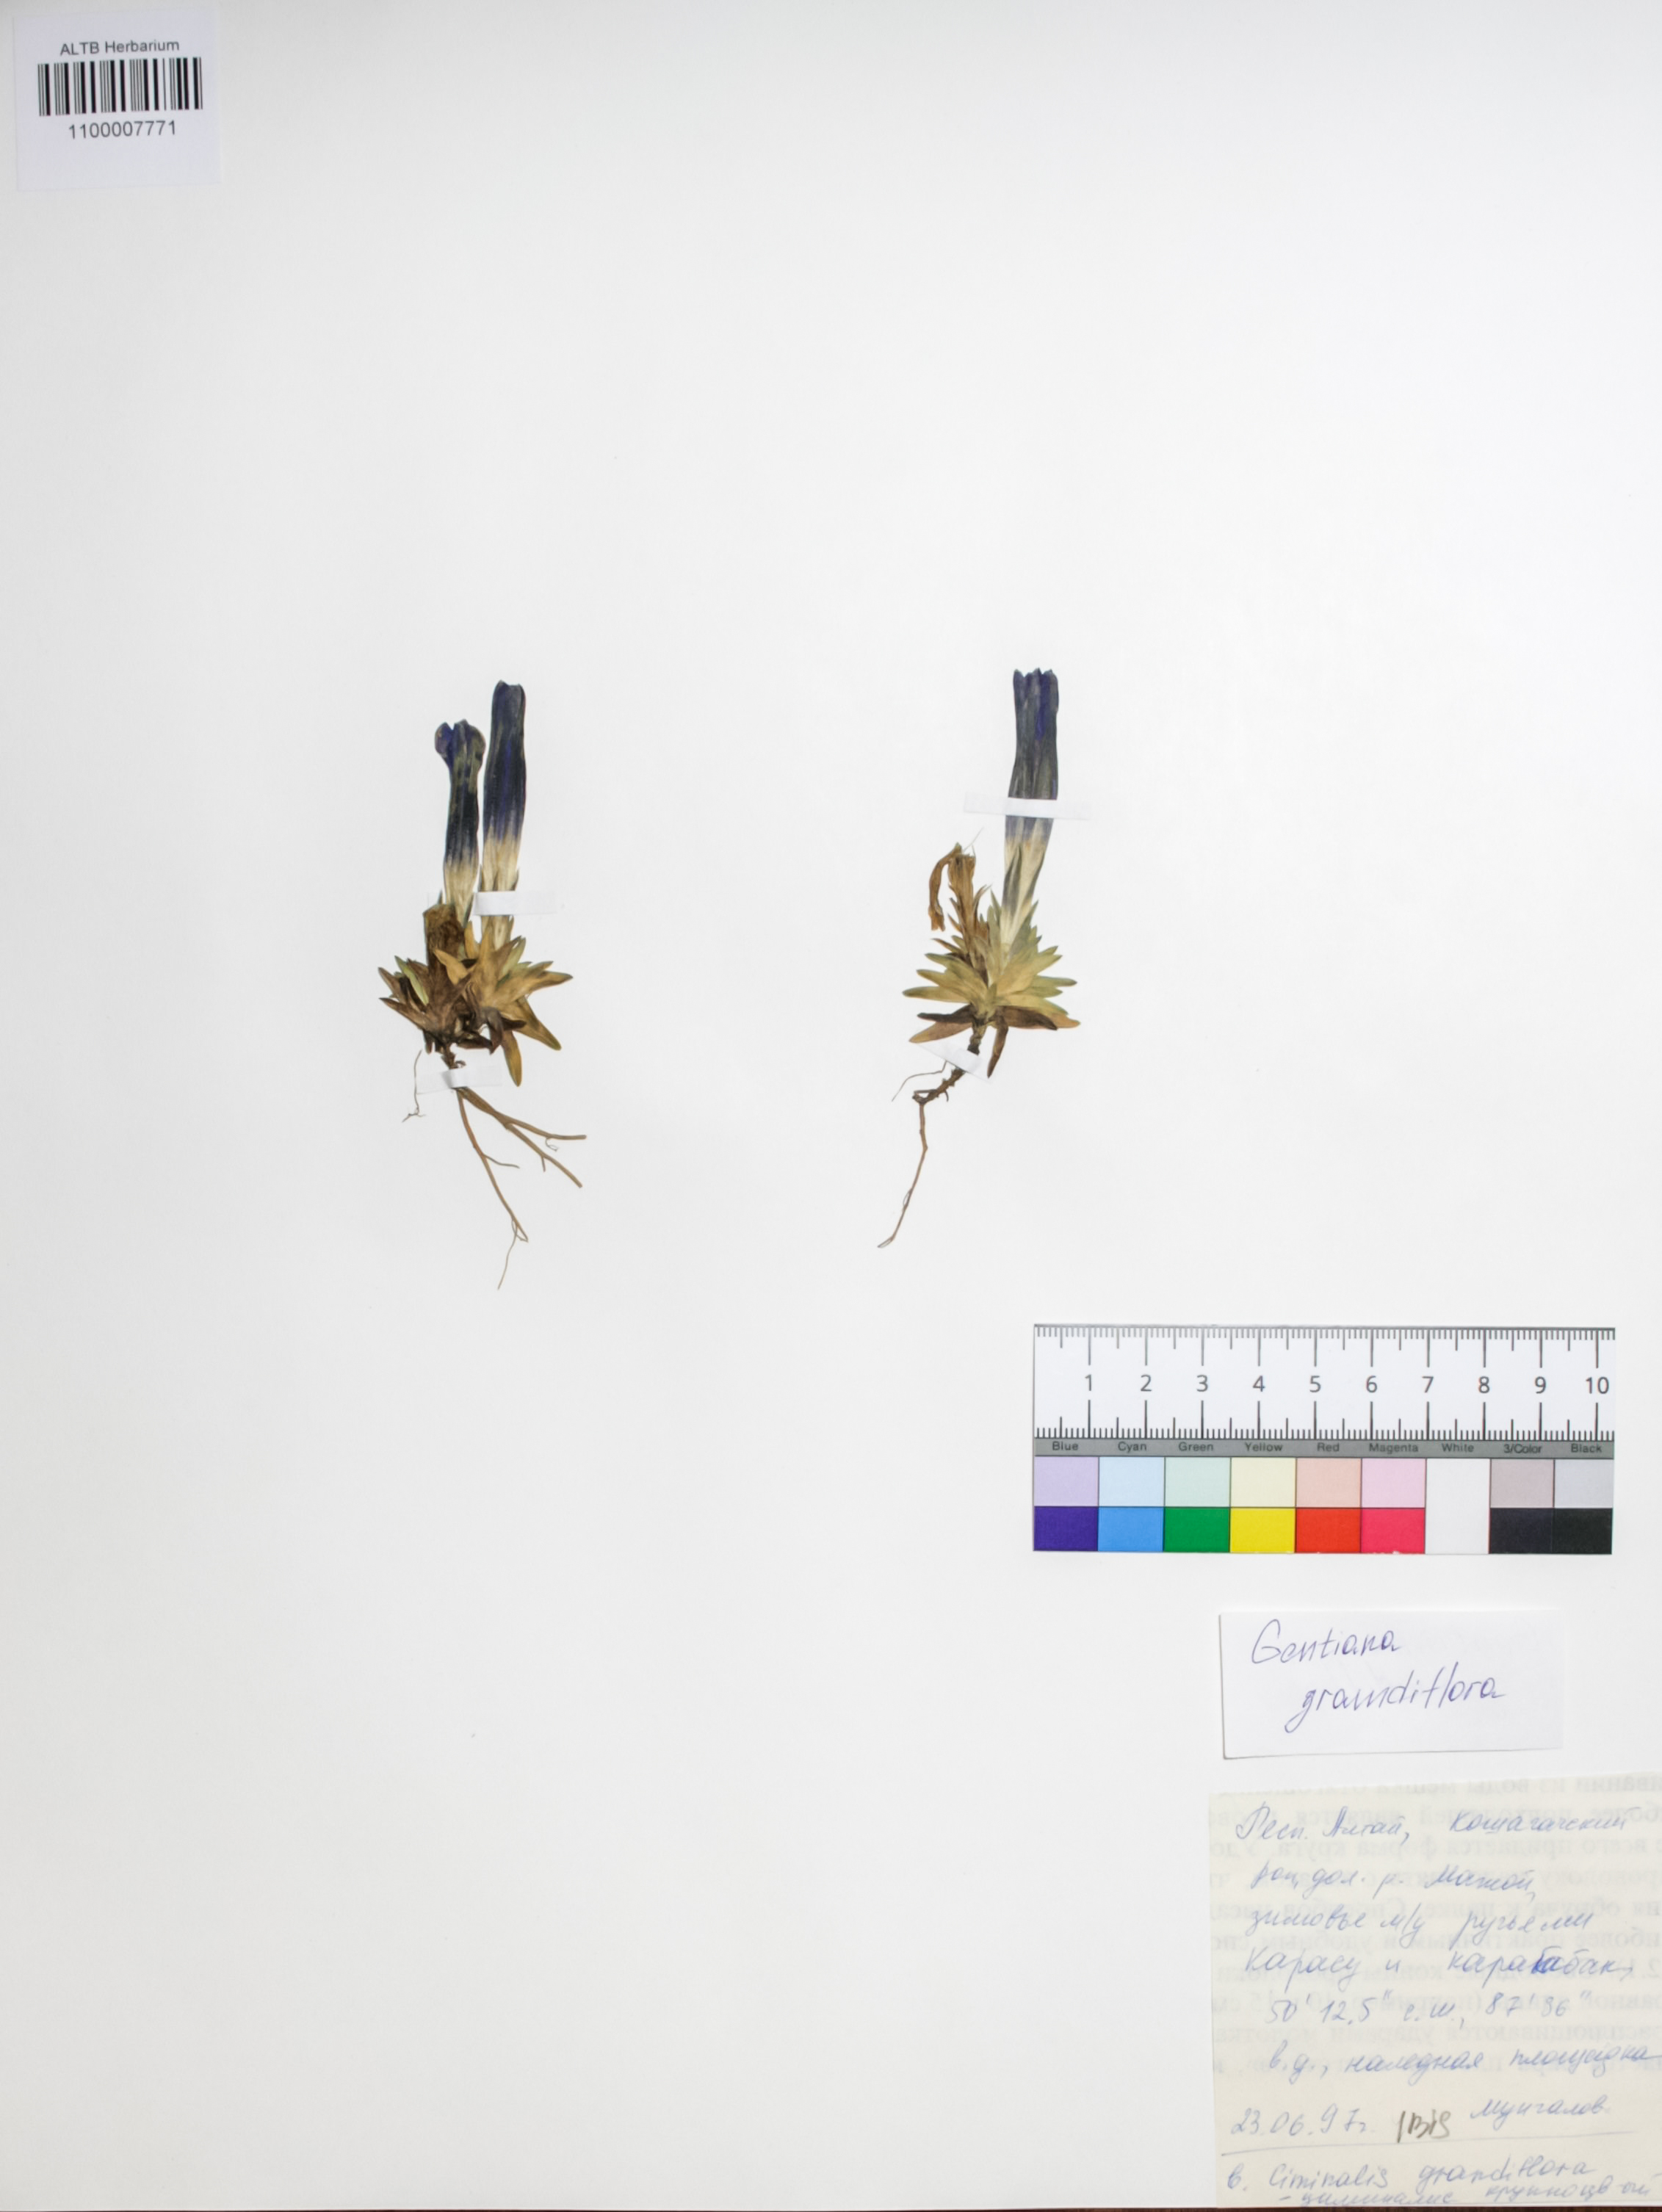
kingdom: Plantae
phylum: Tracheophyta
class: Magnoliopsida
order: Gentianales
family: Gentianaceae
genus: Gentiana
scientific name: Gentiana grandiflora
